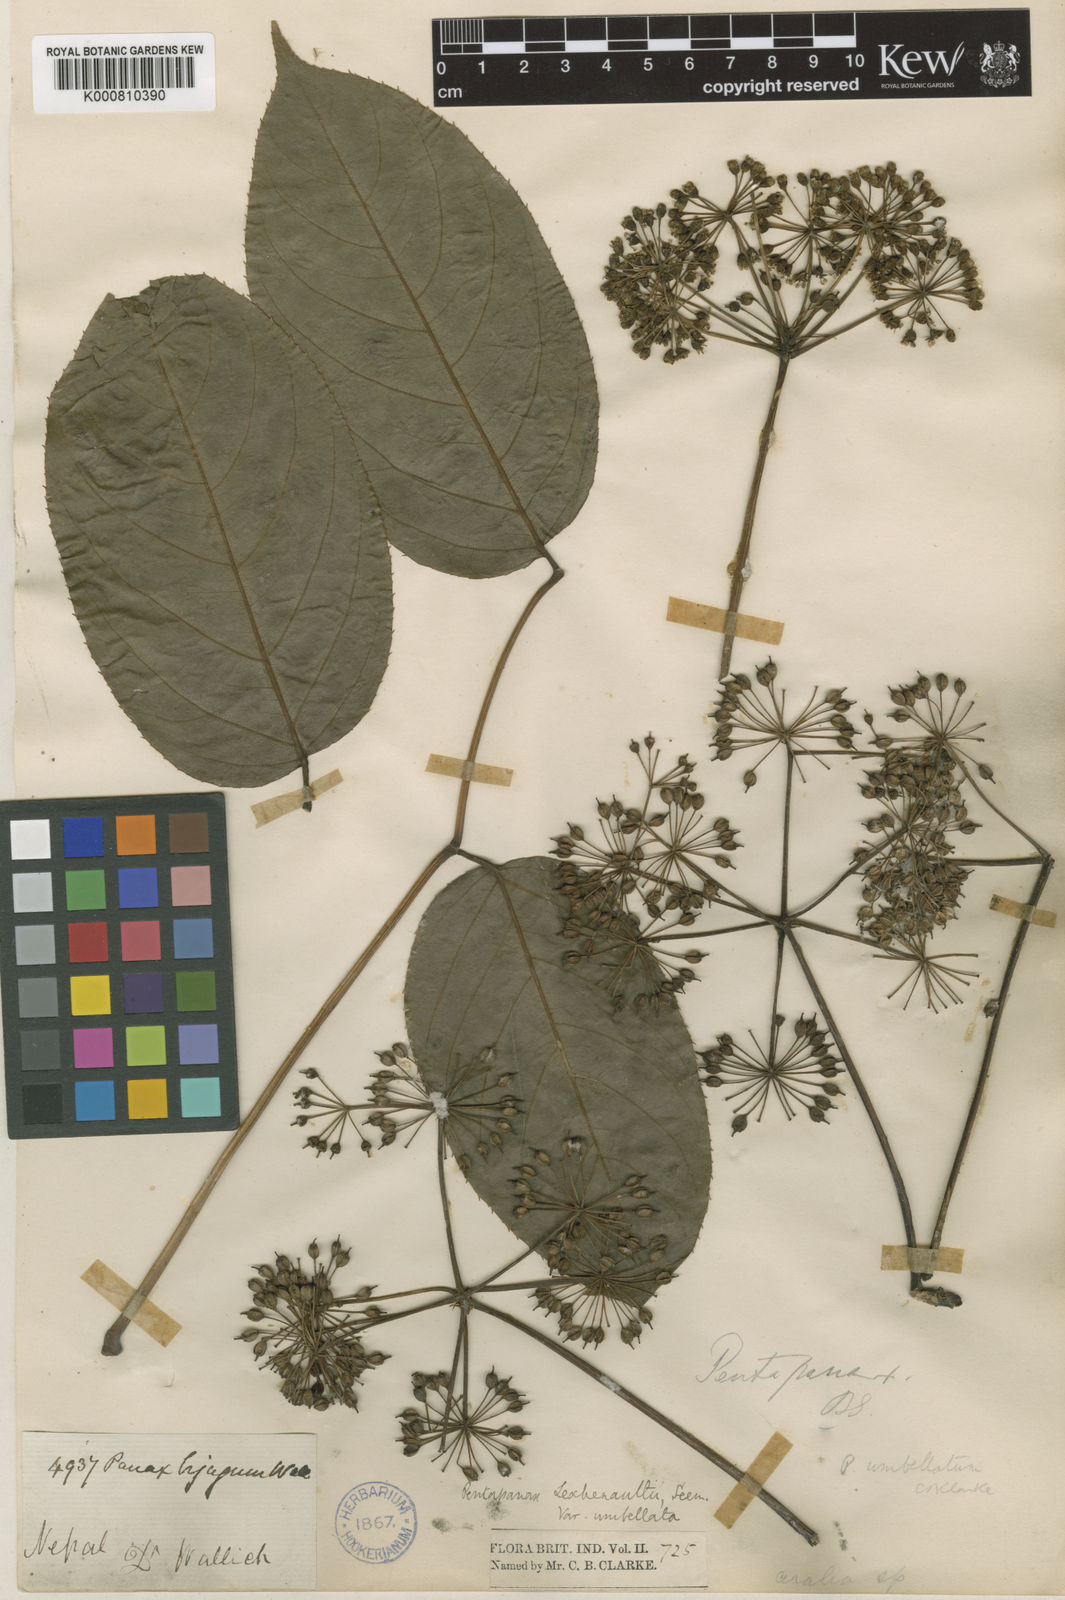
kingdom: Plantae
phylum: Tracheophyta
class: Magnoliopsida
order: Apiales
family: Araliaceae
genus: Aralia
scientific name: Aralia leschenaultii
